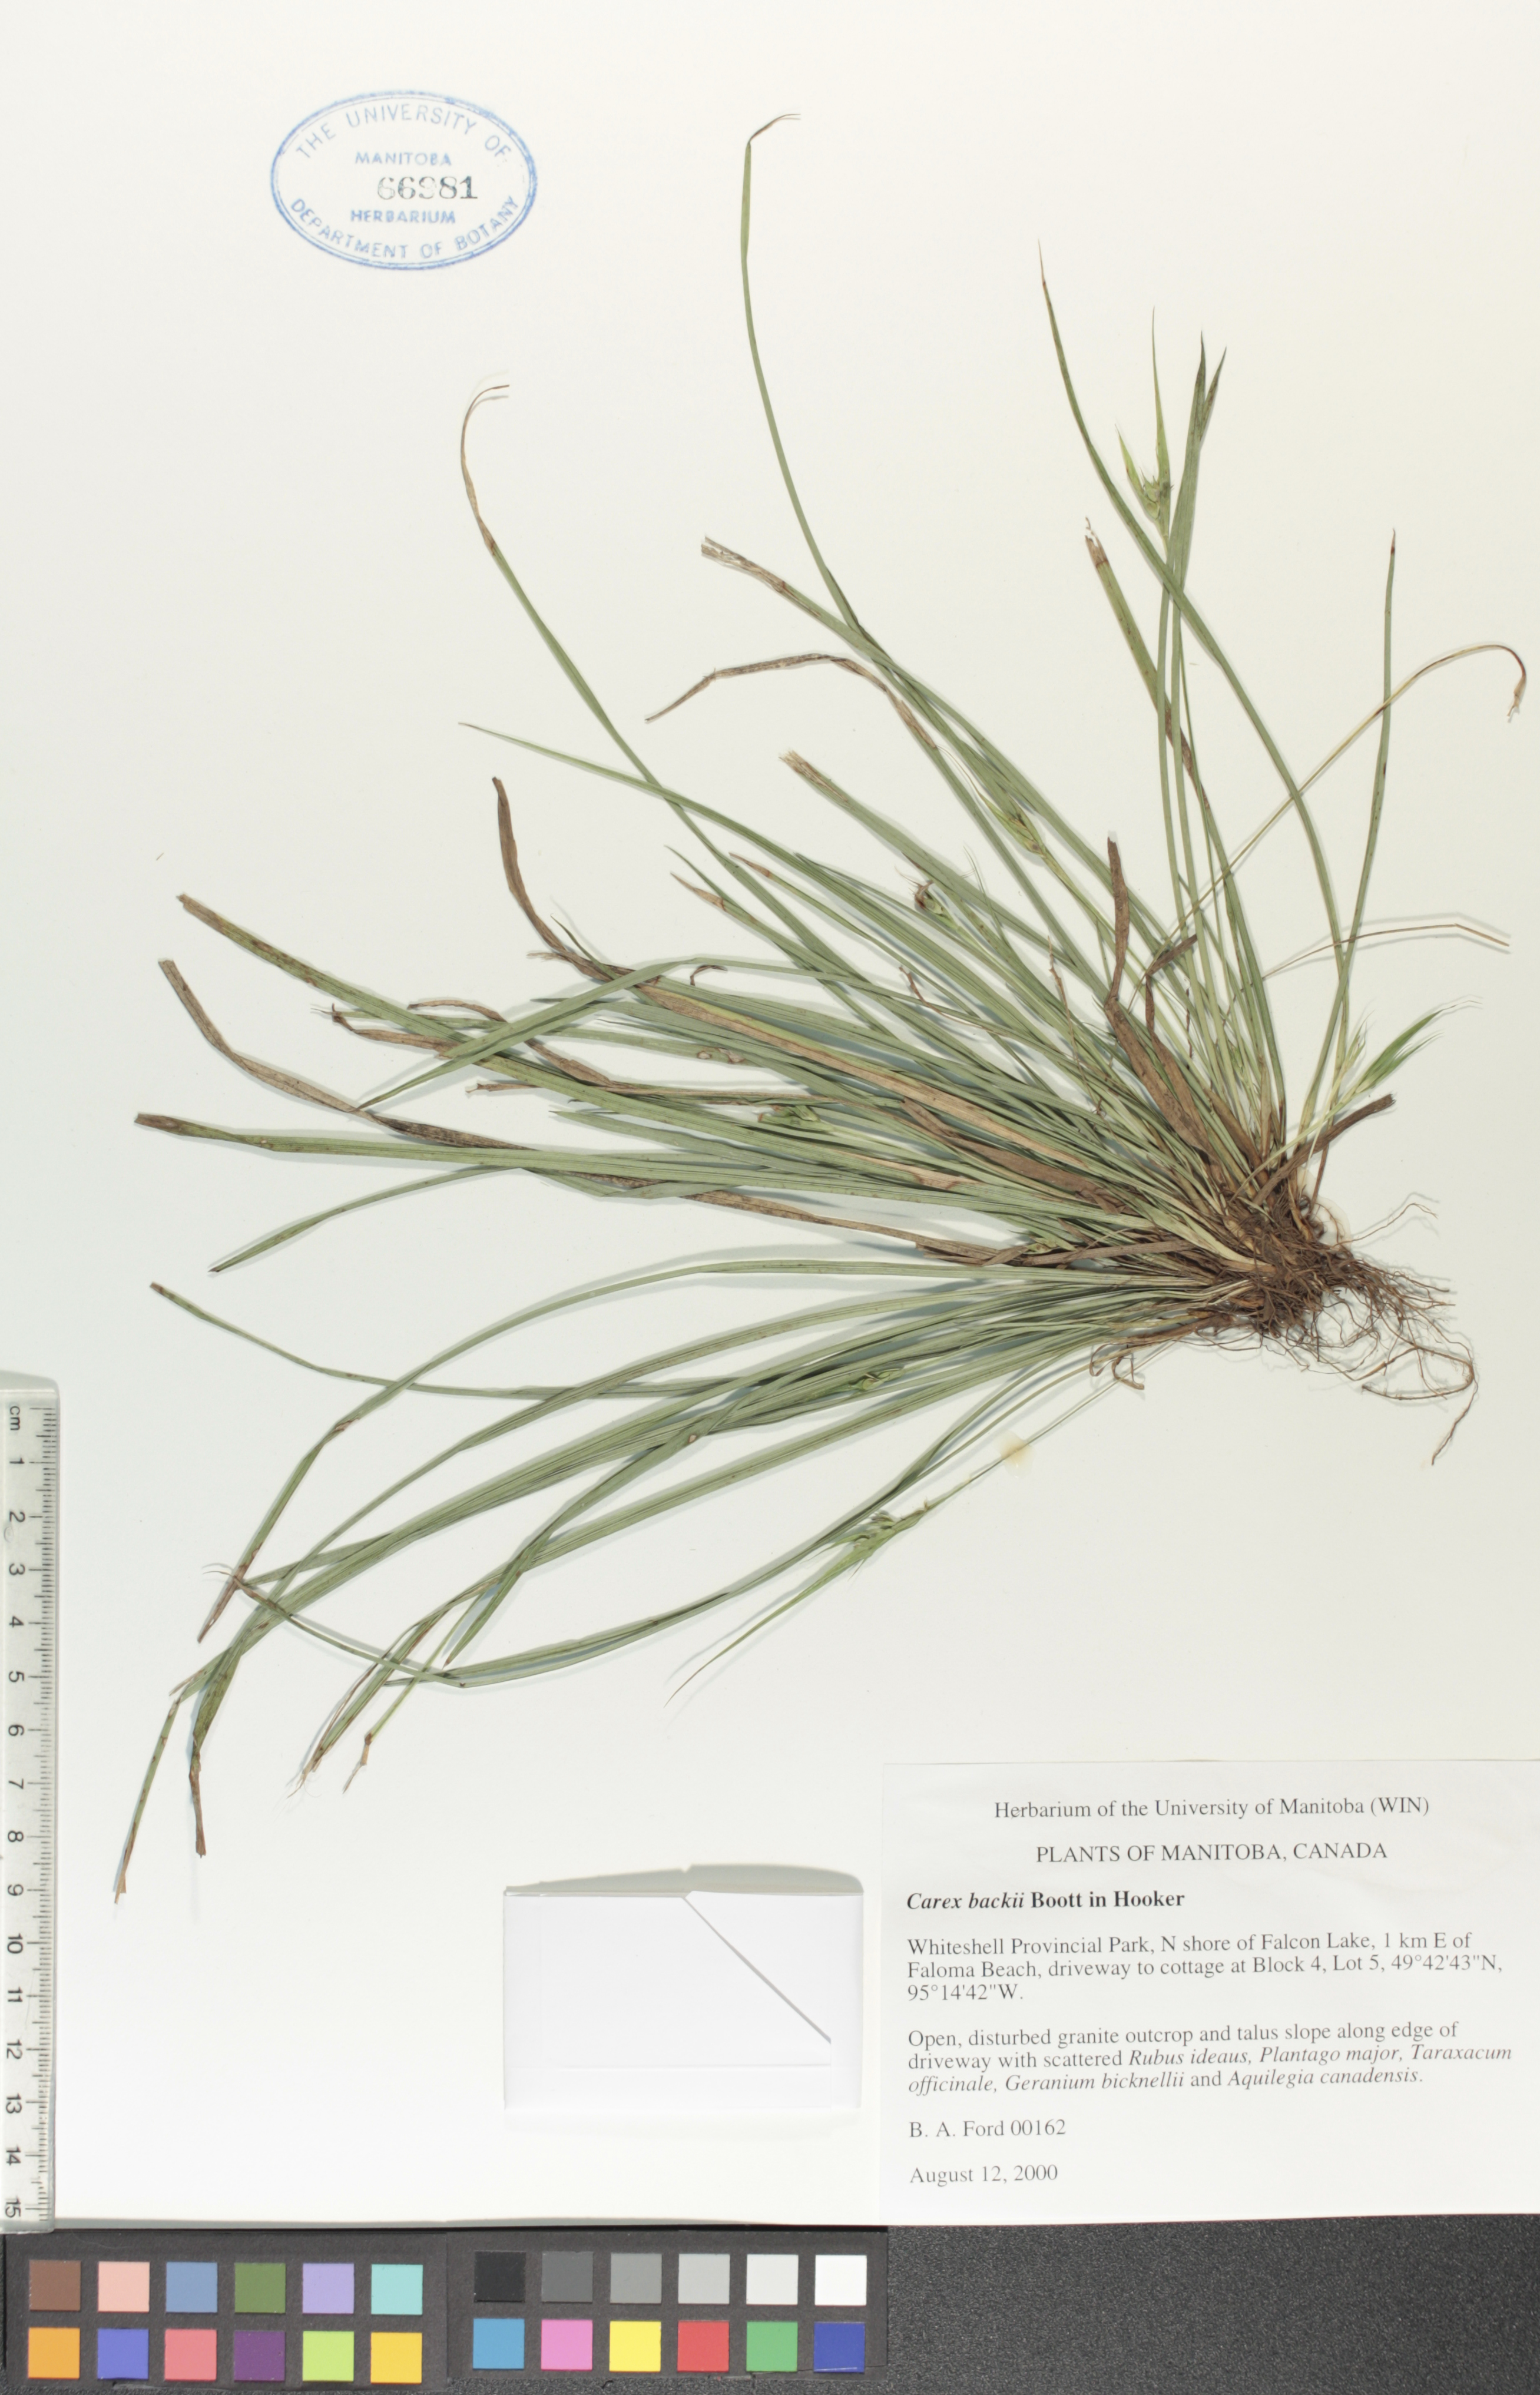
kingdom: Plantae
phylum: Tracheophyta
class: Liliopsida
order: Poales
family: Cyperaceae
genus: Carex
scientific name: Carex backii
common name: Back's sedge
